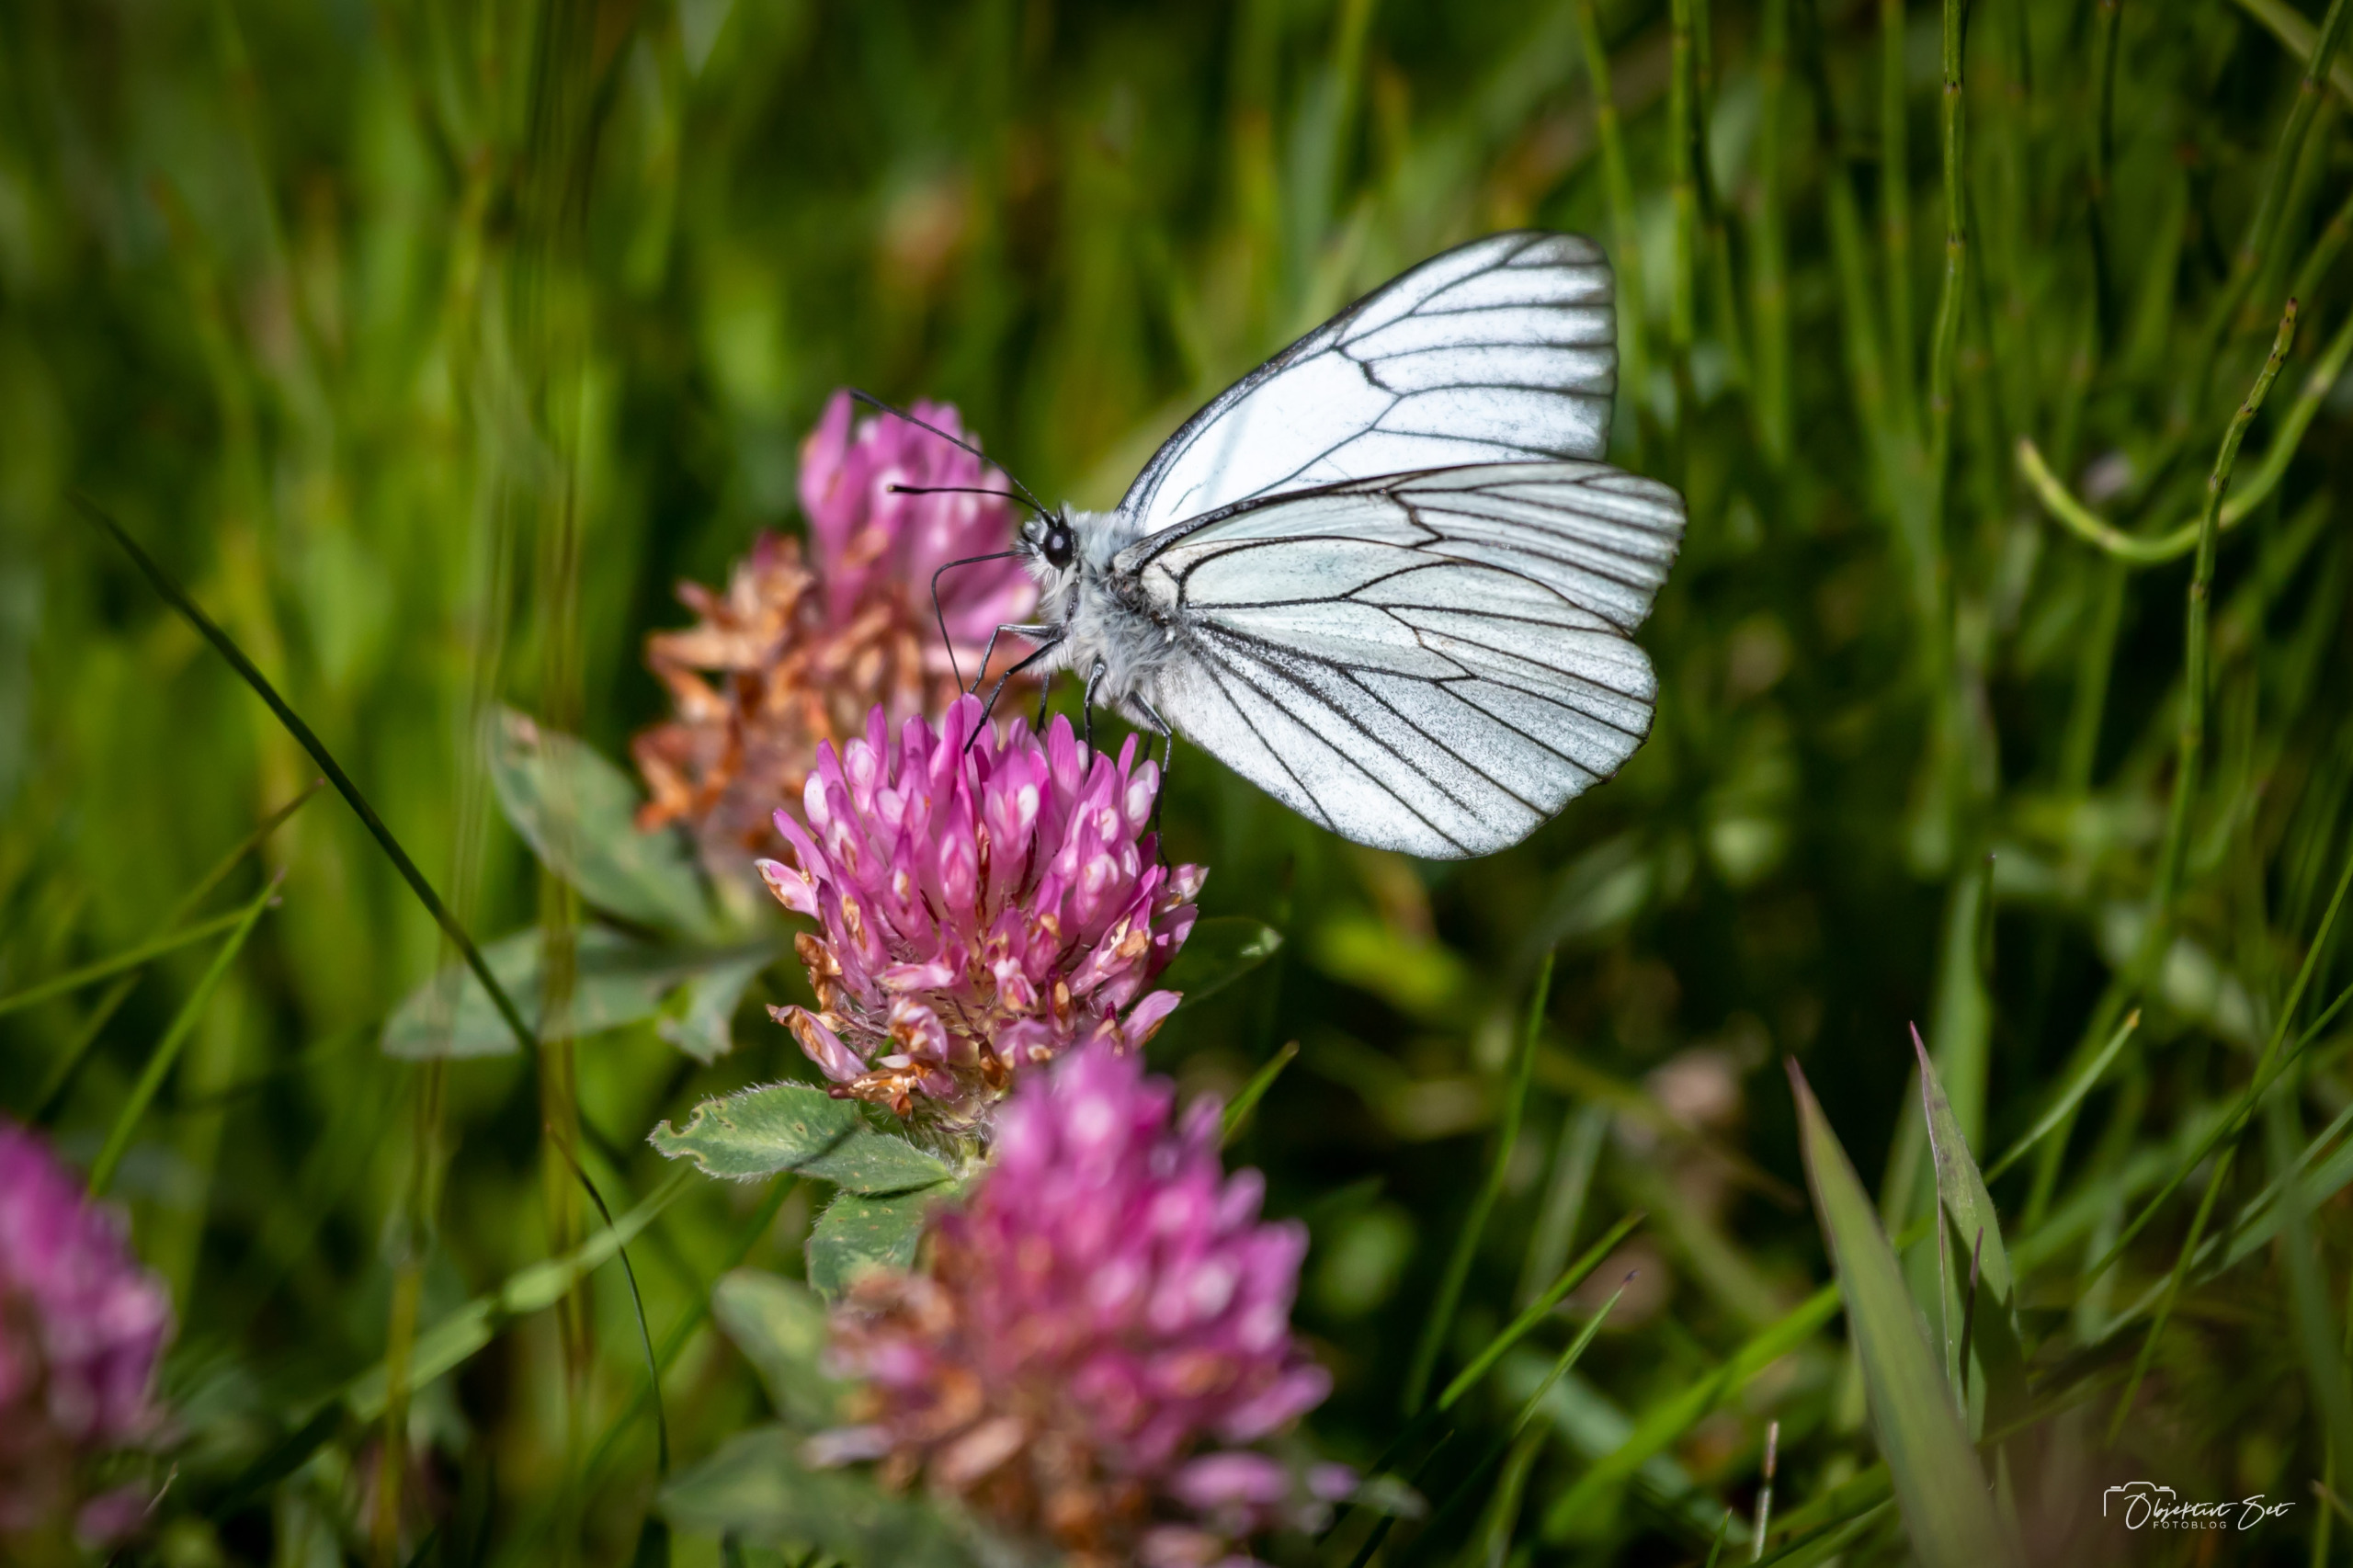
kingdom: Animalia
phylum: Arthropoda
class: Insecta
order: Lepidoptera
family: Pieridae
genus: Aporia
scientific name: Aporia crataegi
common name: Sortåret hvidvinge
